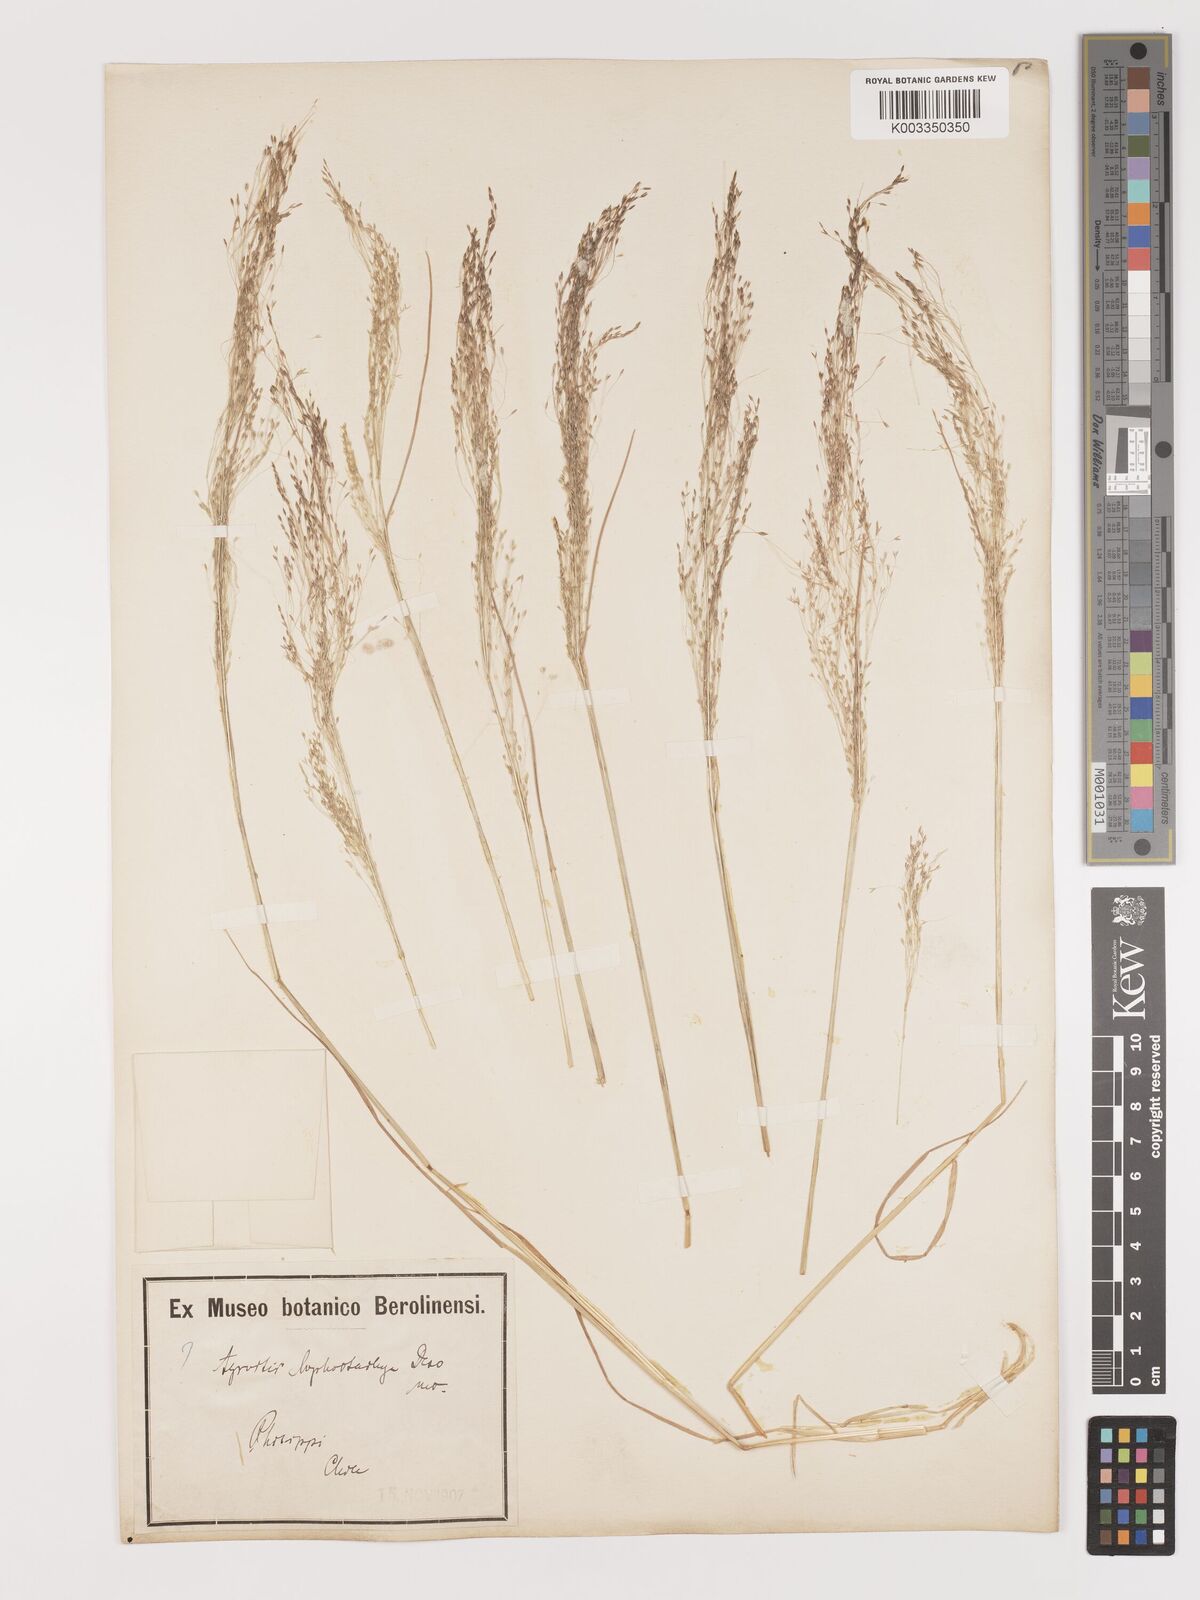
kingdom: Plantae
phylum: Tracheophyta
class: Liliopsida
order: Poales
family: Poaceae
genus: Agrostis
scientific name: Agrostis
